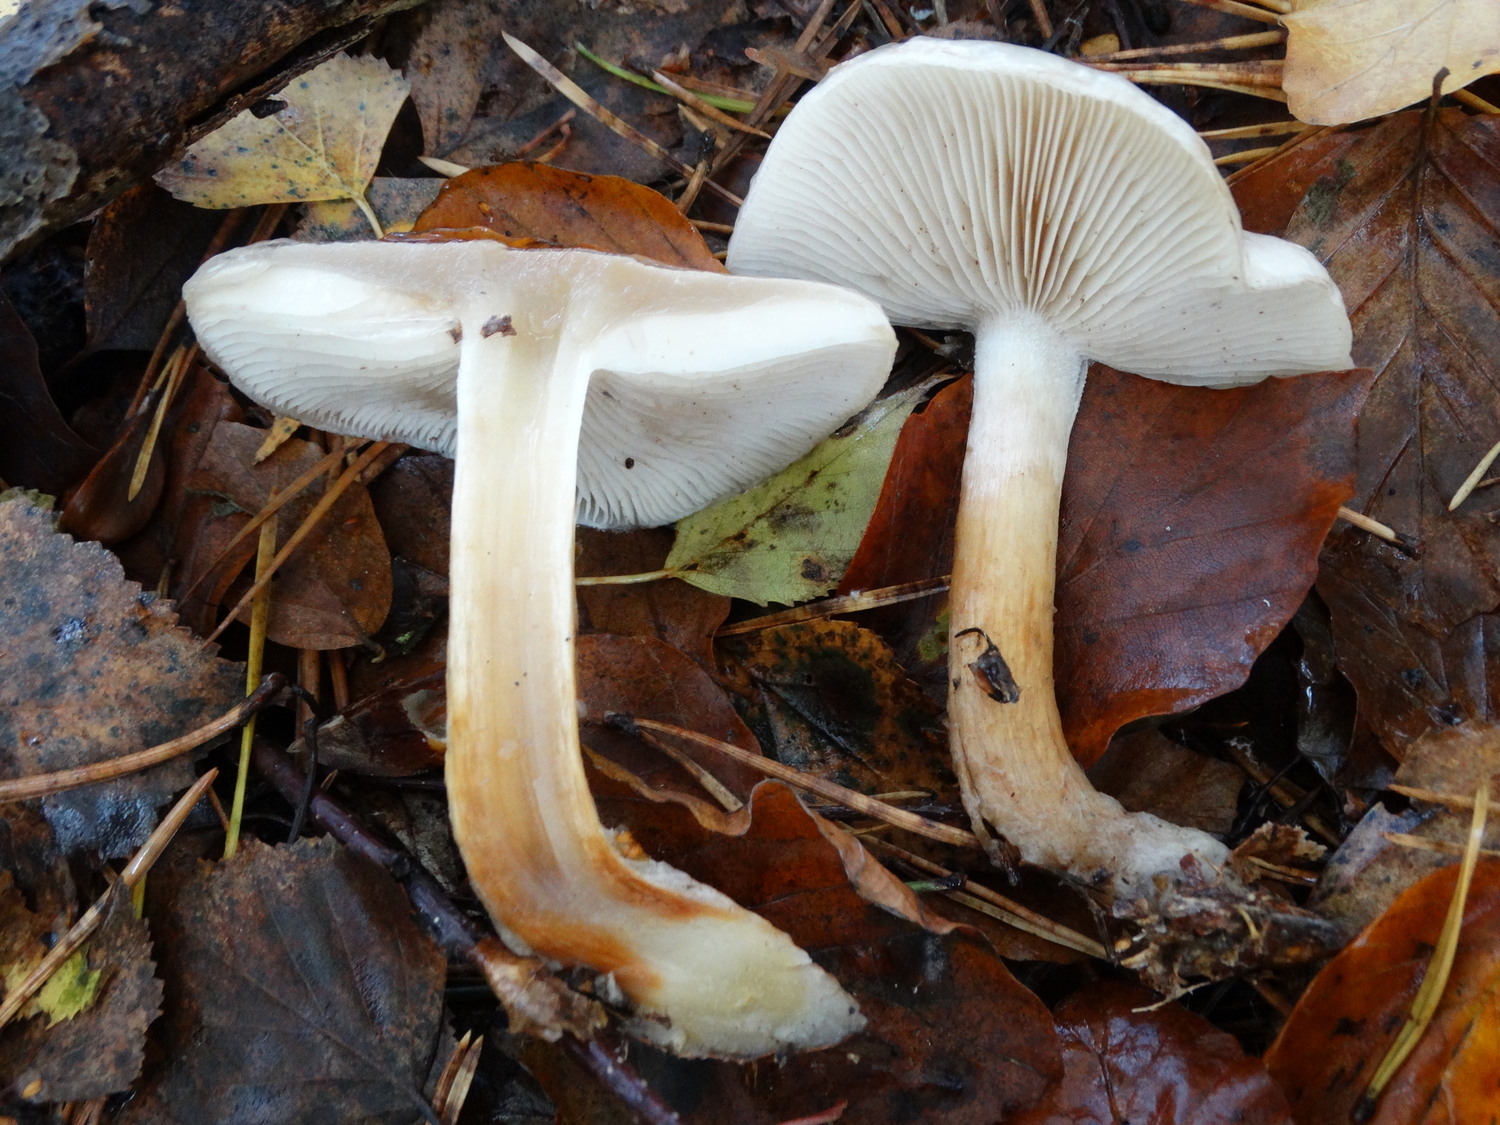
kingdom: Fungi
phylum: Basidiomycota
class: Agaricomycetes
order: Agaricales
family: Strophariaceae
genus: Pholiota
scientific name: Pholiota lenta
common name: løv-skælhat
